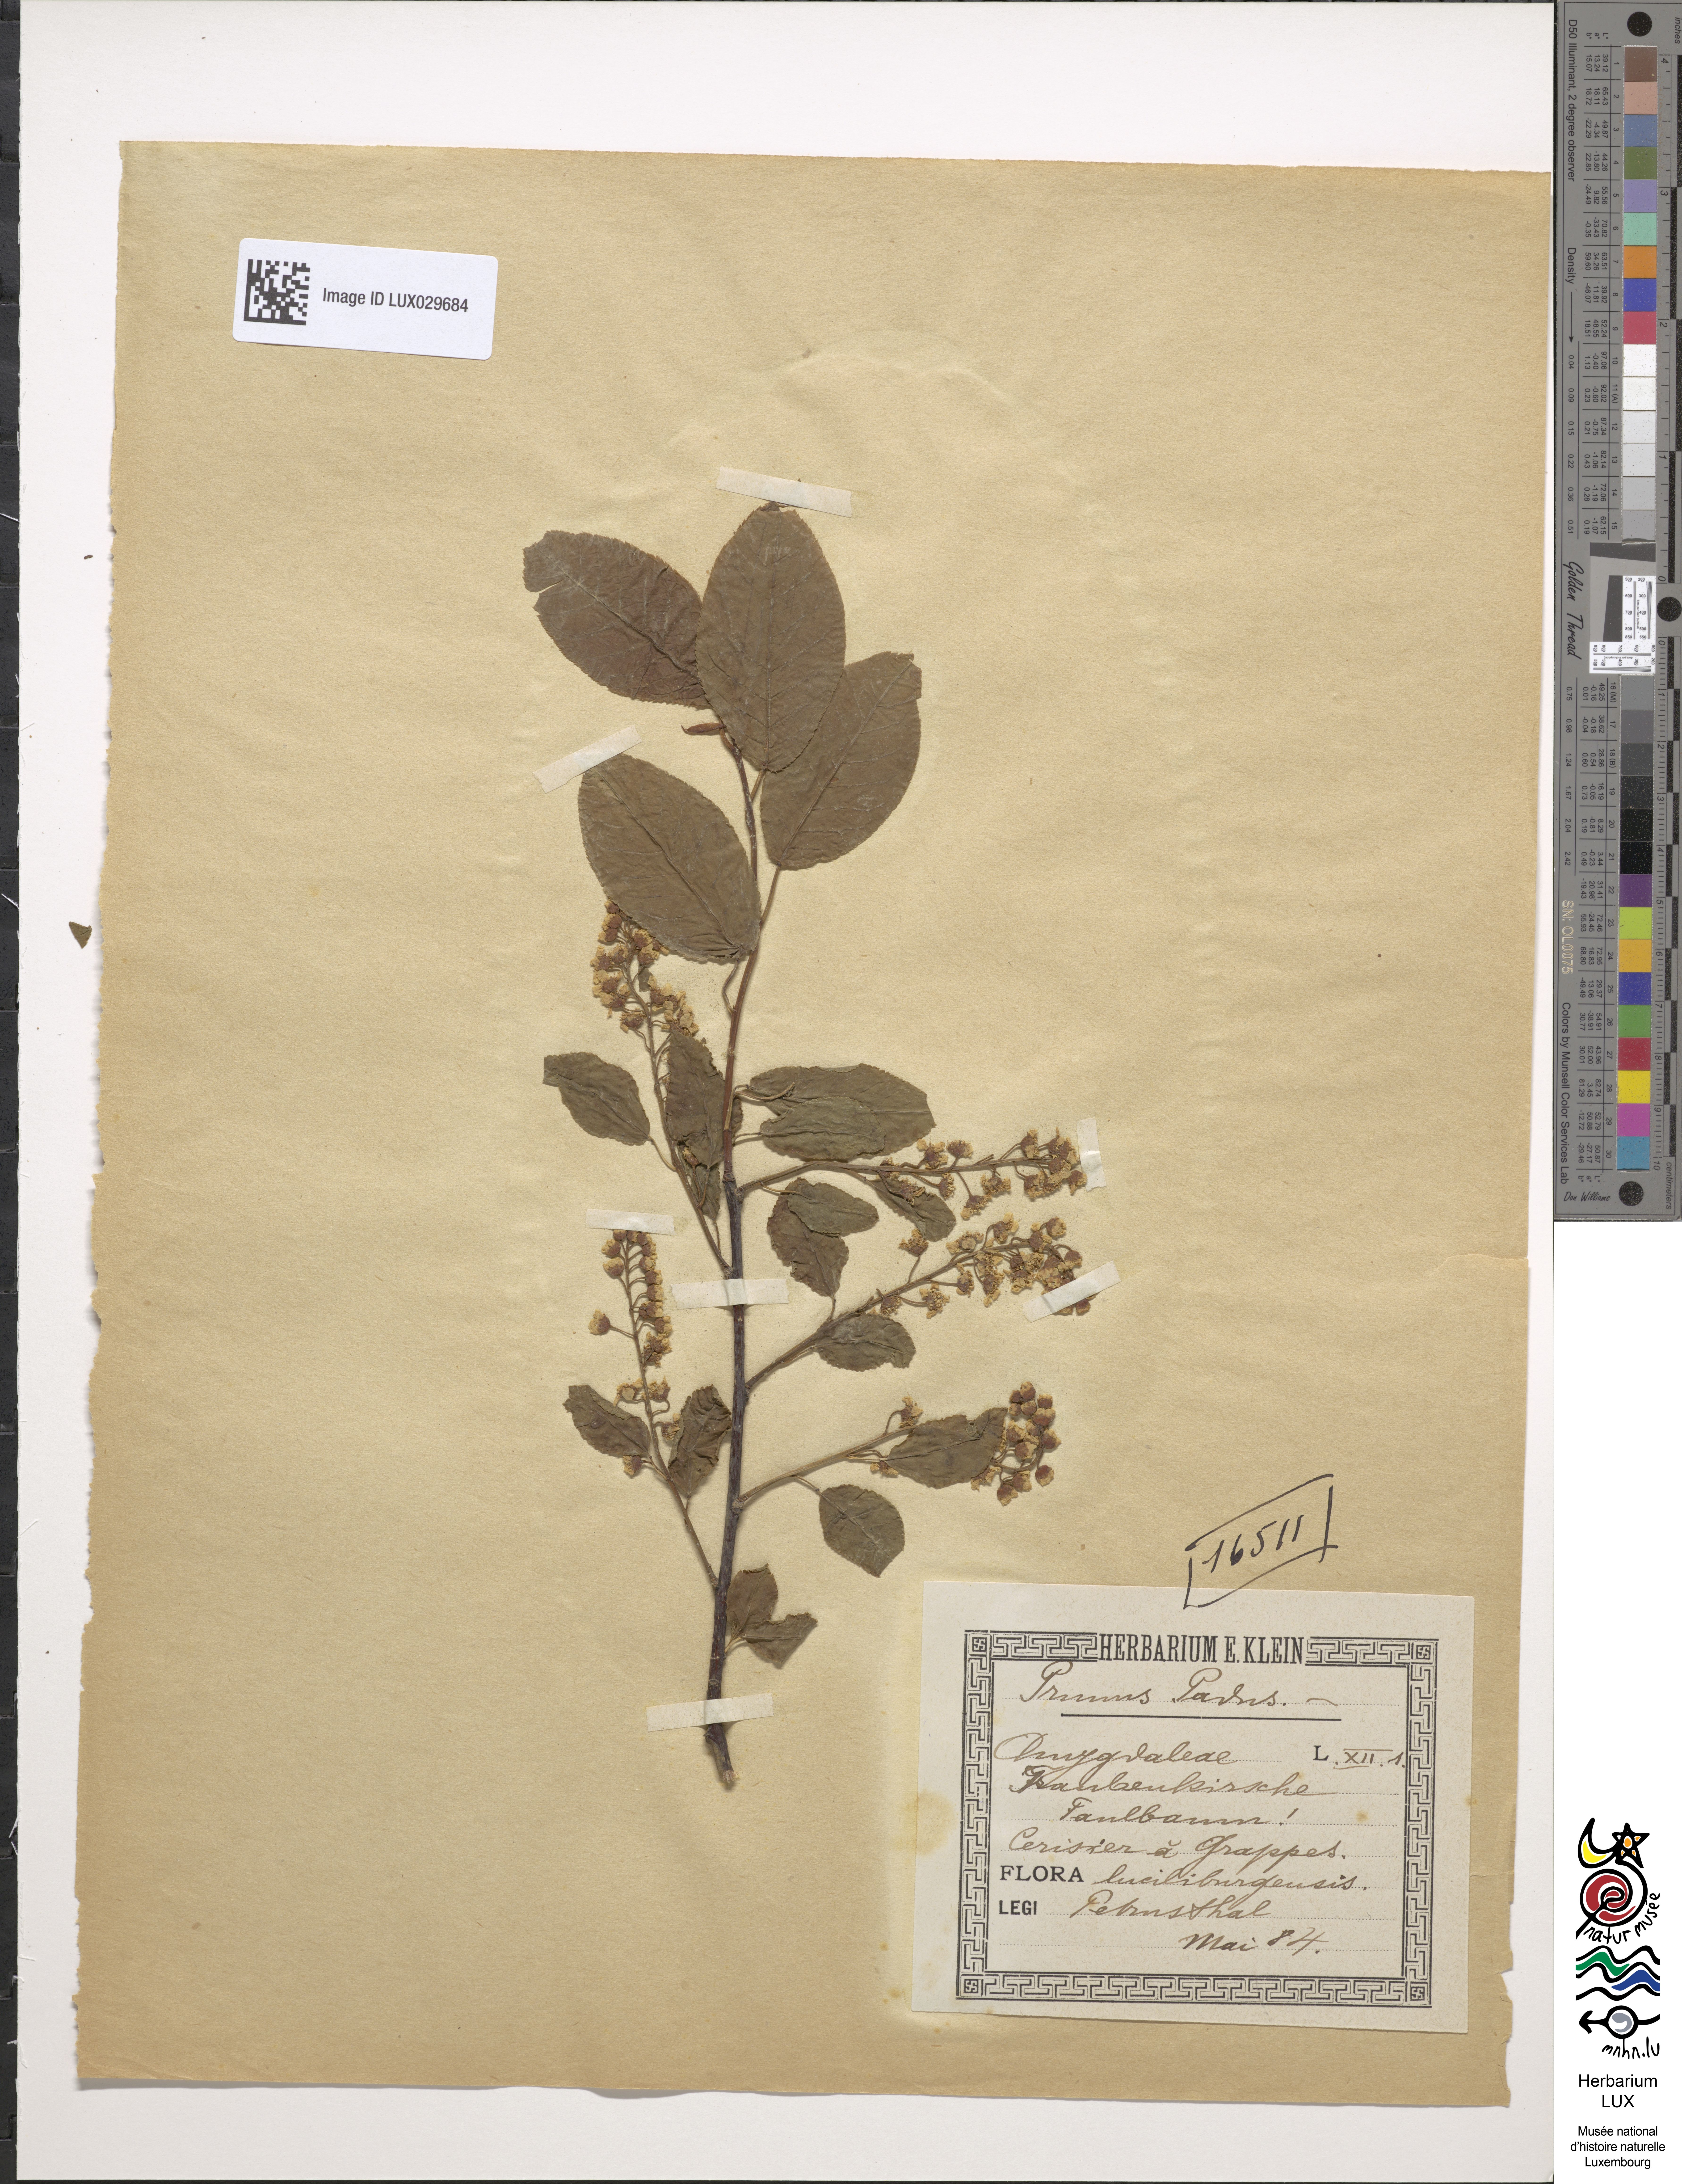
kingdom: Plantae
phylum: Tracheophyta
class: Magnoliopsida
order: Rosales
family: Rosaceae
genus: Prunus
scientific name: Prunus padus
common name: Bird cherry
